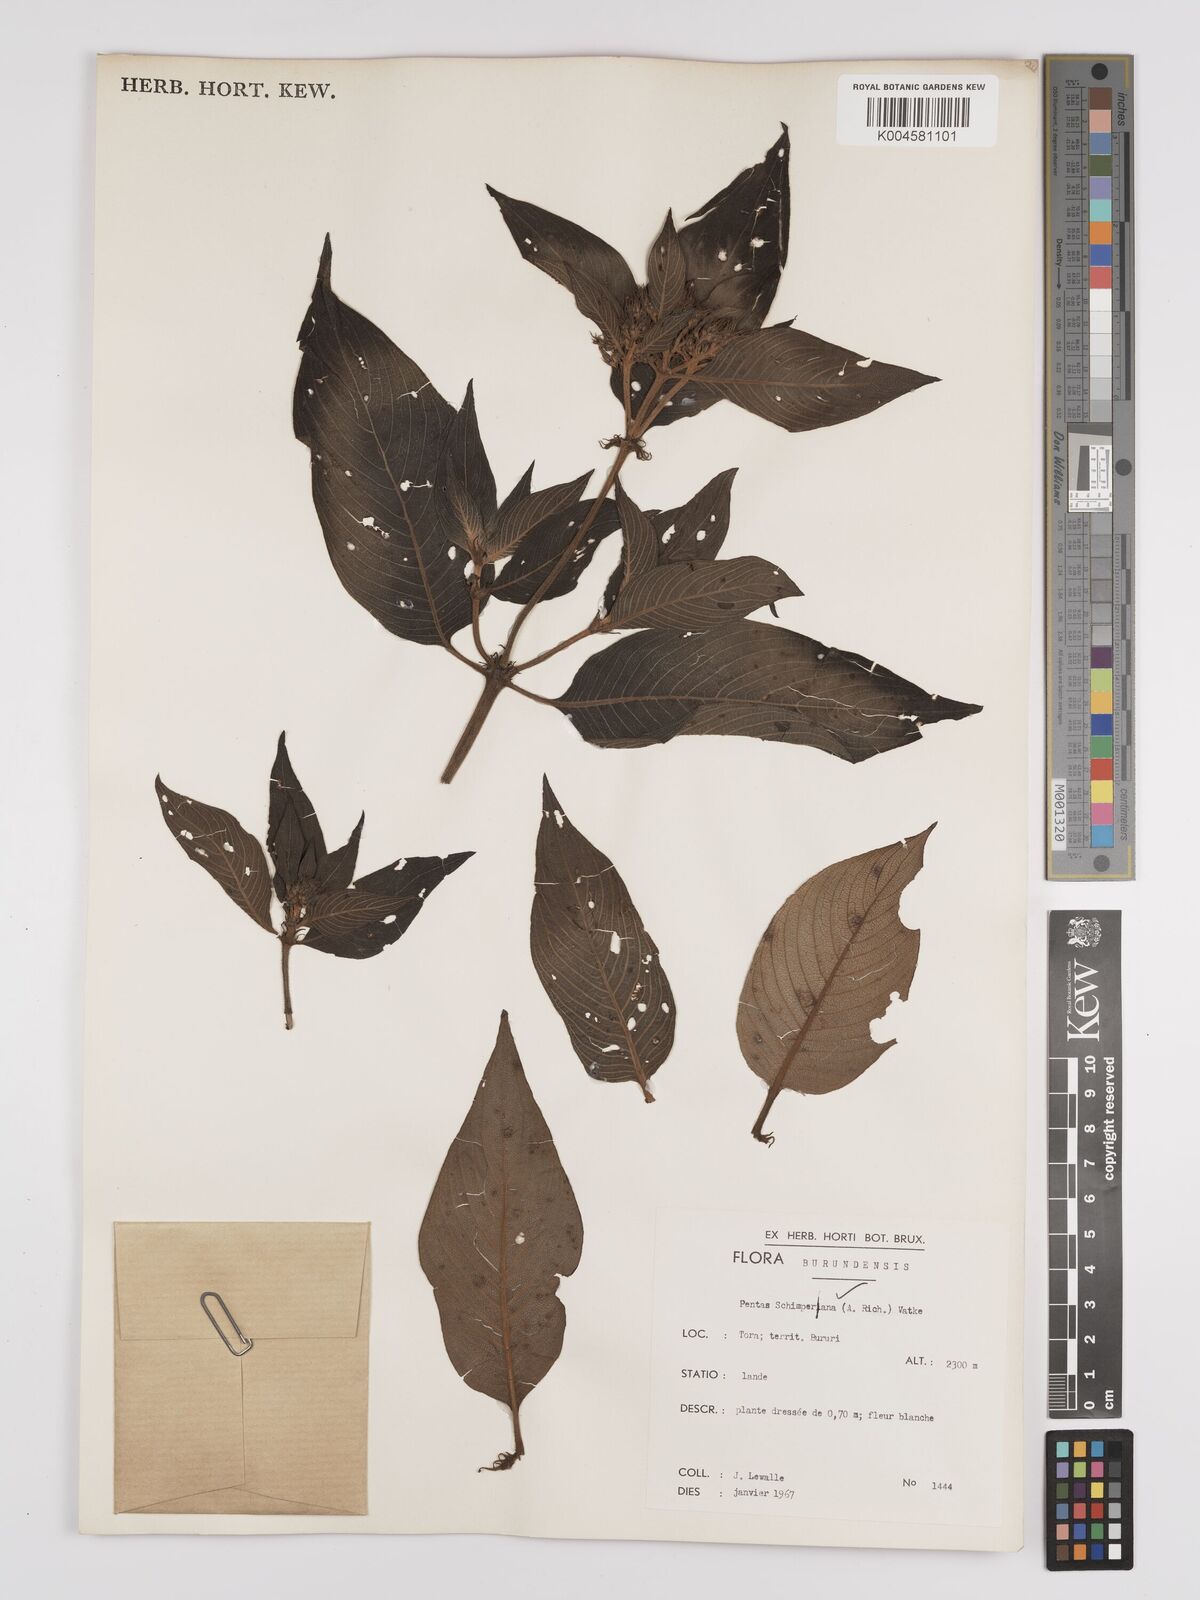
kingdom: Plantae
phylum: Tracheophyta
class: Magnoliopsida
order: Gentianales
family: Rubiaceae
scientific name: Rubiaceae
